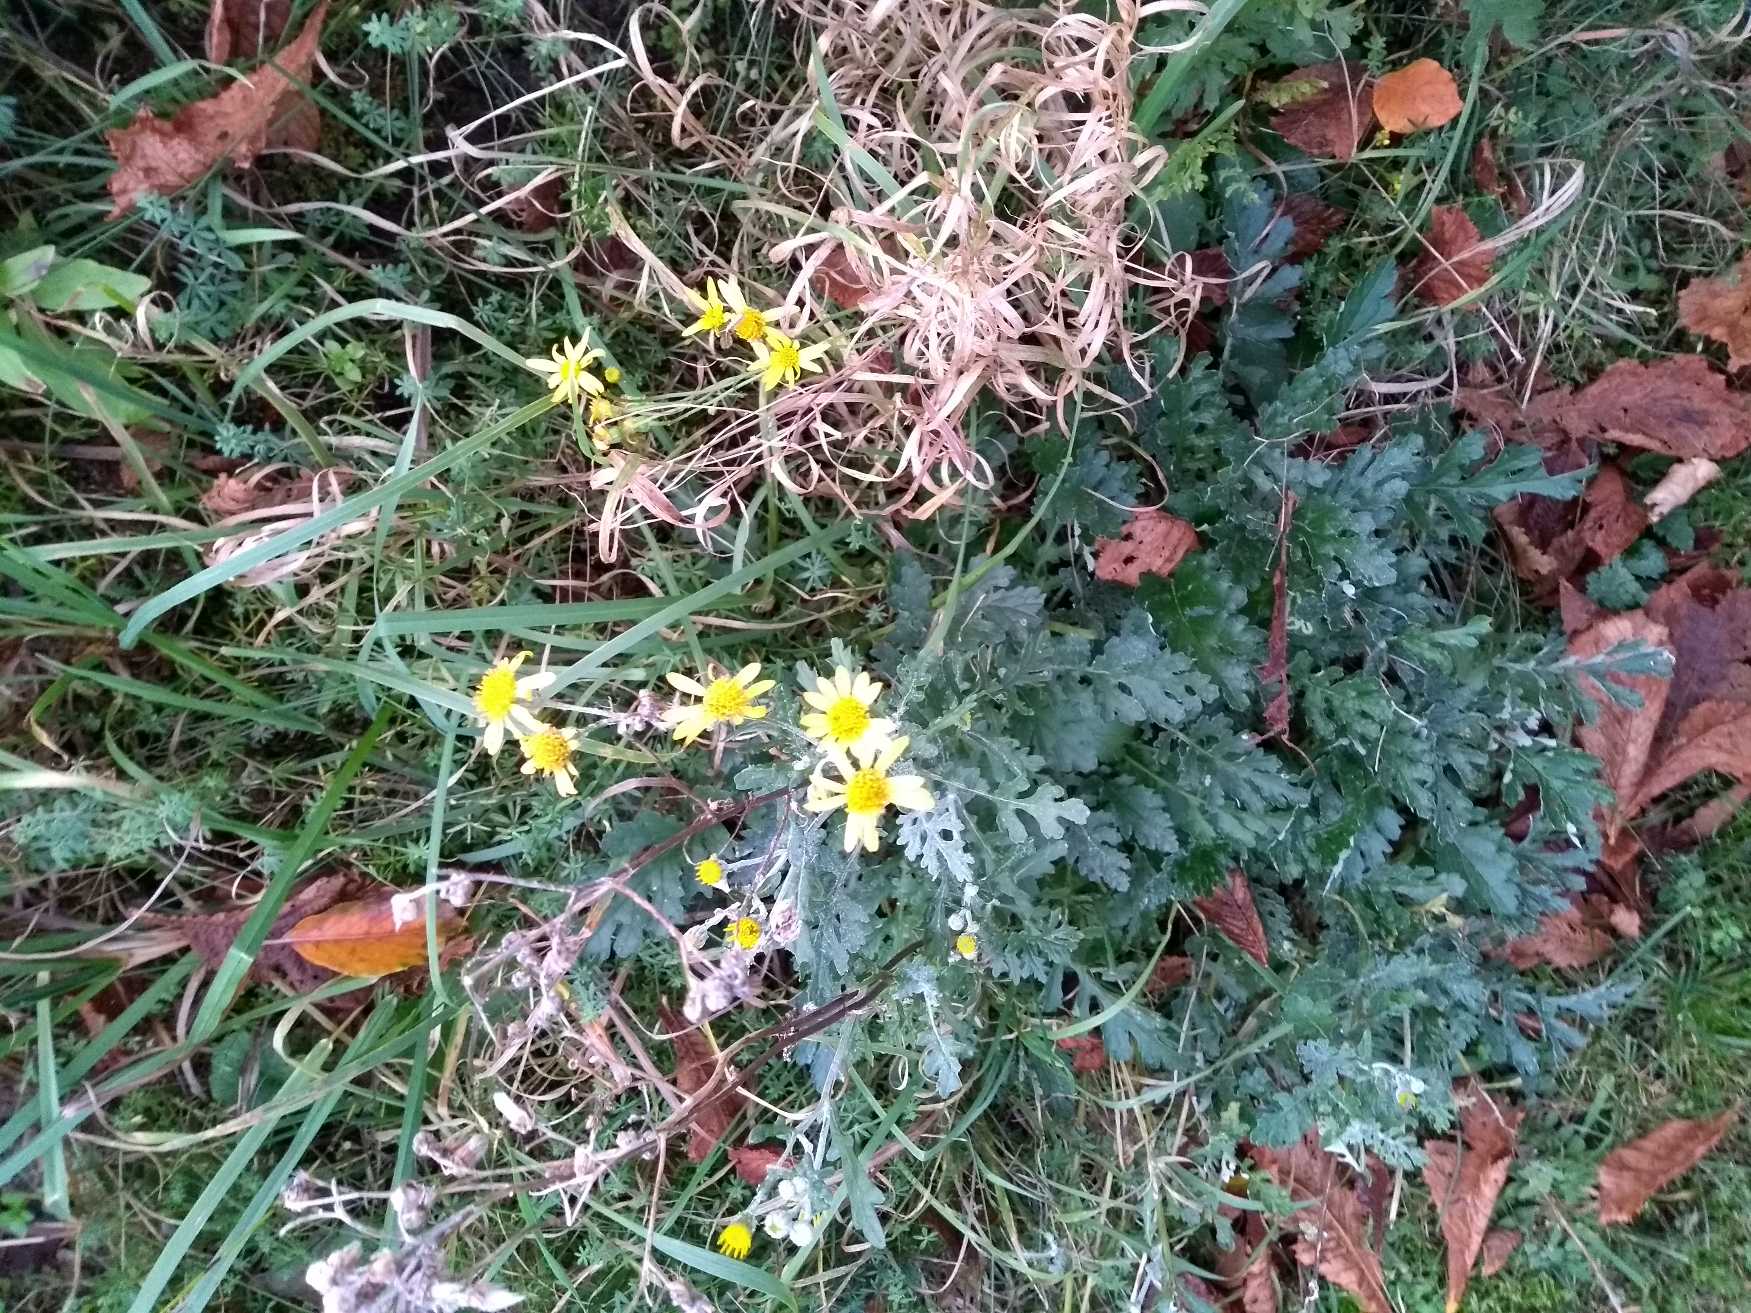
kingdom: Plantae
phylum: Tracheophyta
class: Magnoliopsida
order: Asterales
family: Asteraceae
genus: Jacobaea
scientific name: Jacobaea vulgaris
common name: Eng-brandbæger
